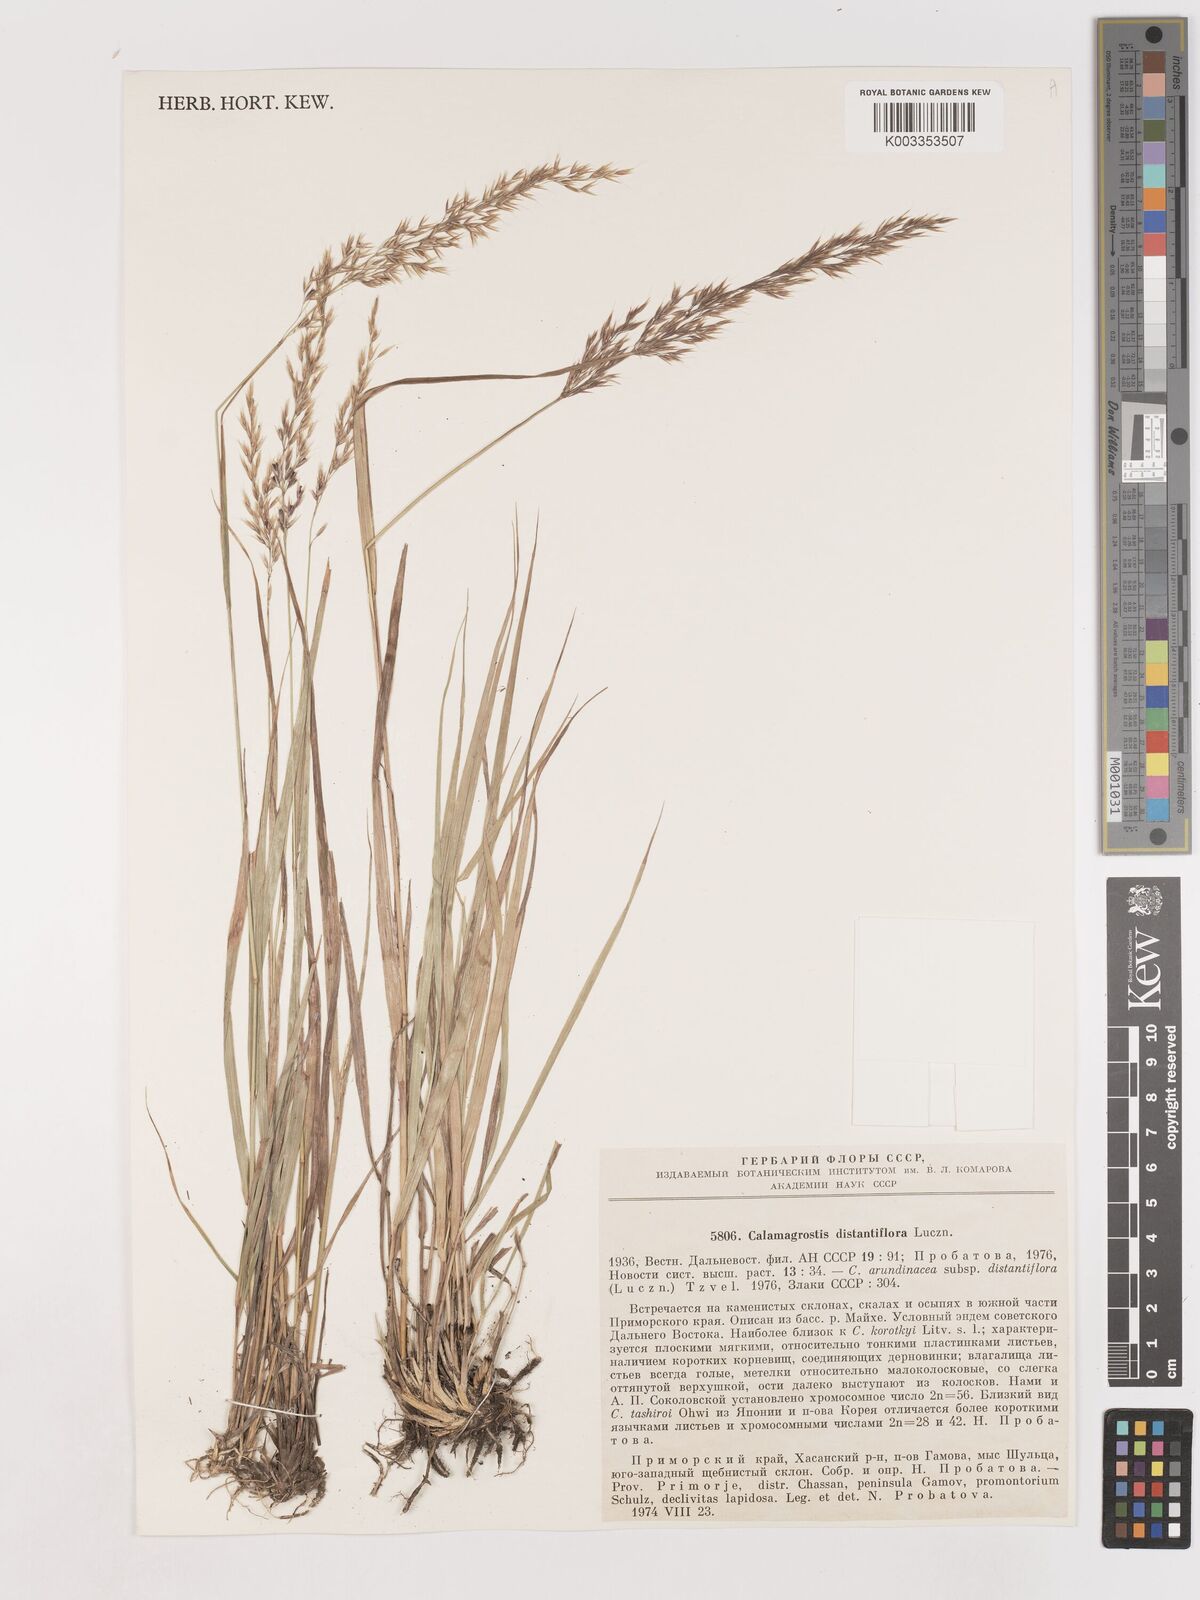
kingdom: Plantae
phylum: Tracheophyta
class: Liliopsida
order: Poales
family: Poaceae
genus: Calamagrostis
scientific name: Calamagrostis
